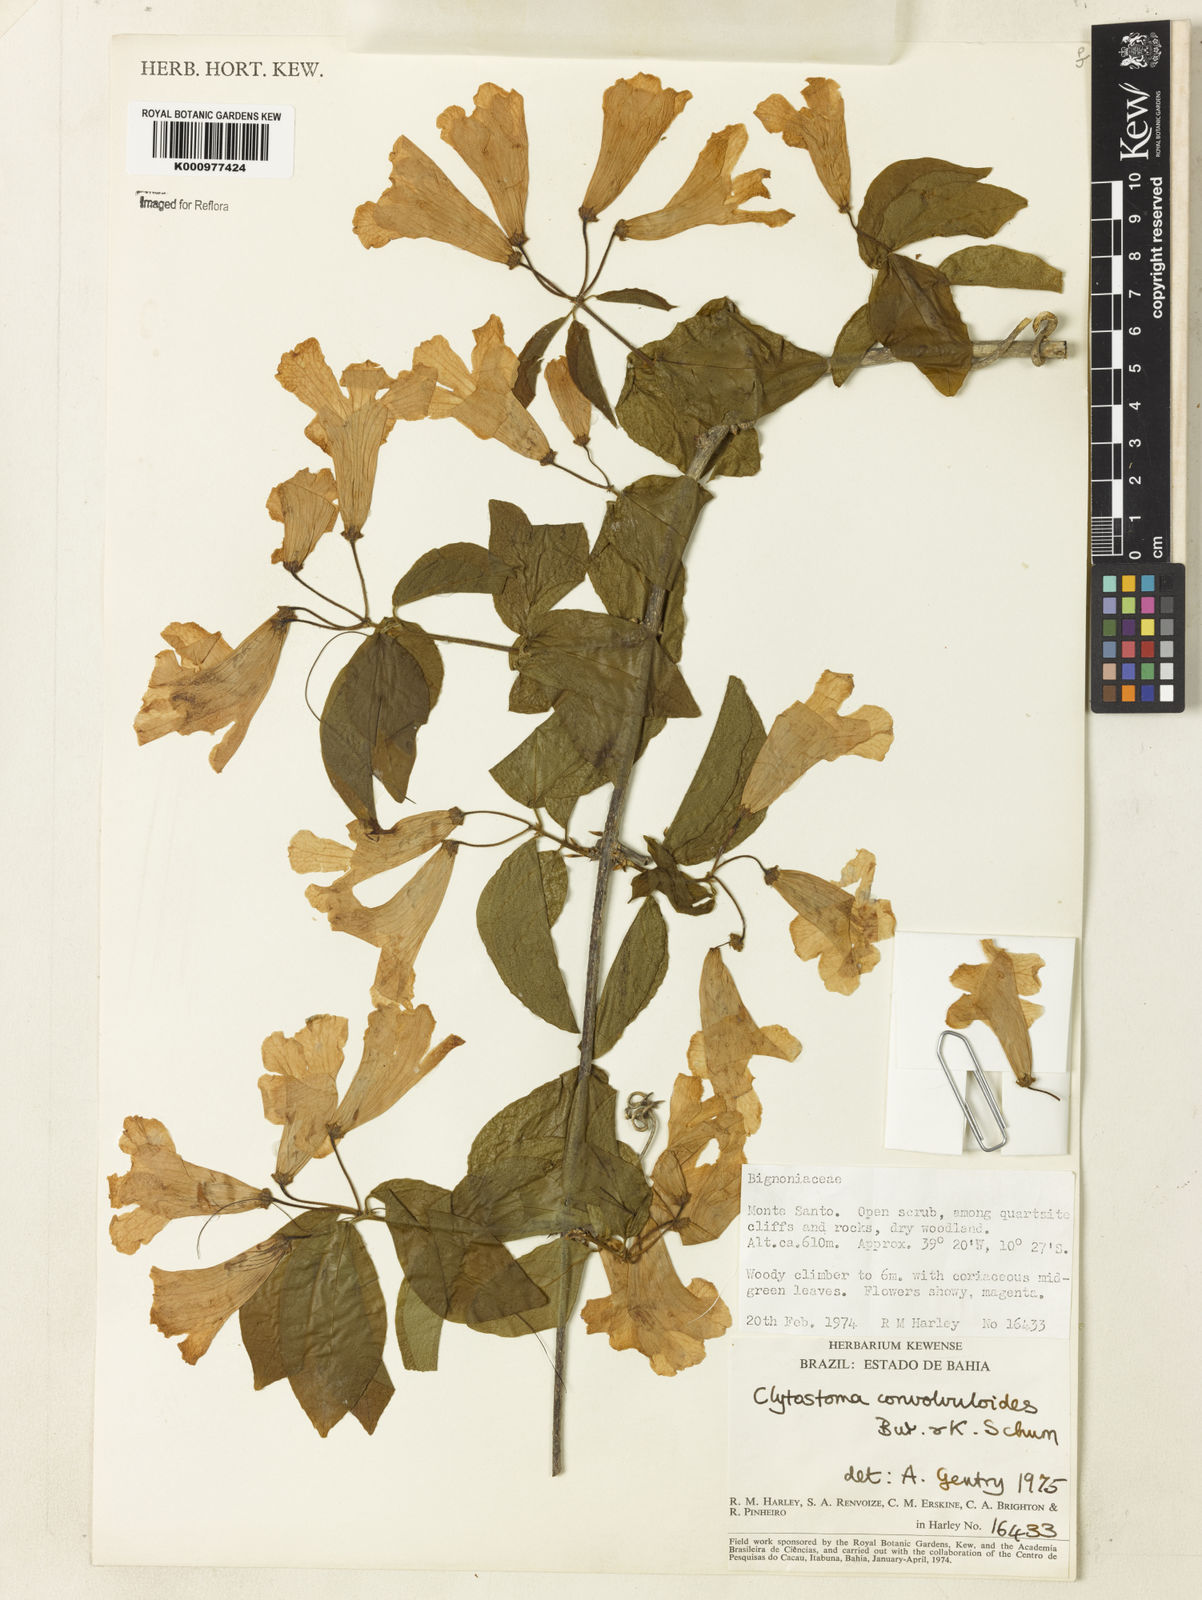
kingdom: Plantae
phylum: Tracheophyta
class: Magnoliopsida
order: Lamiales
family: Bignoniaceae
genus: Bignonia
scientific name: Bignonia convolvuloides
